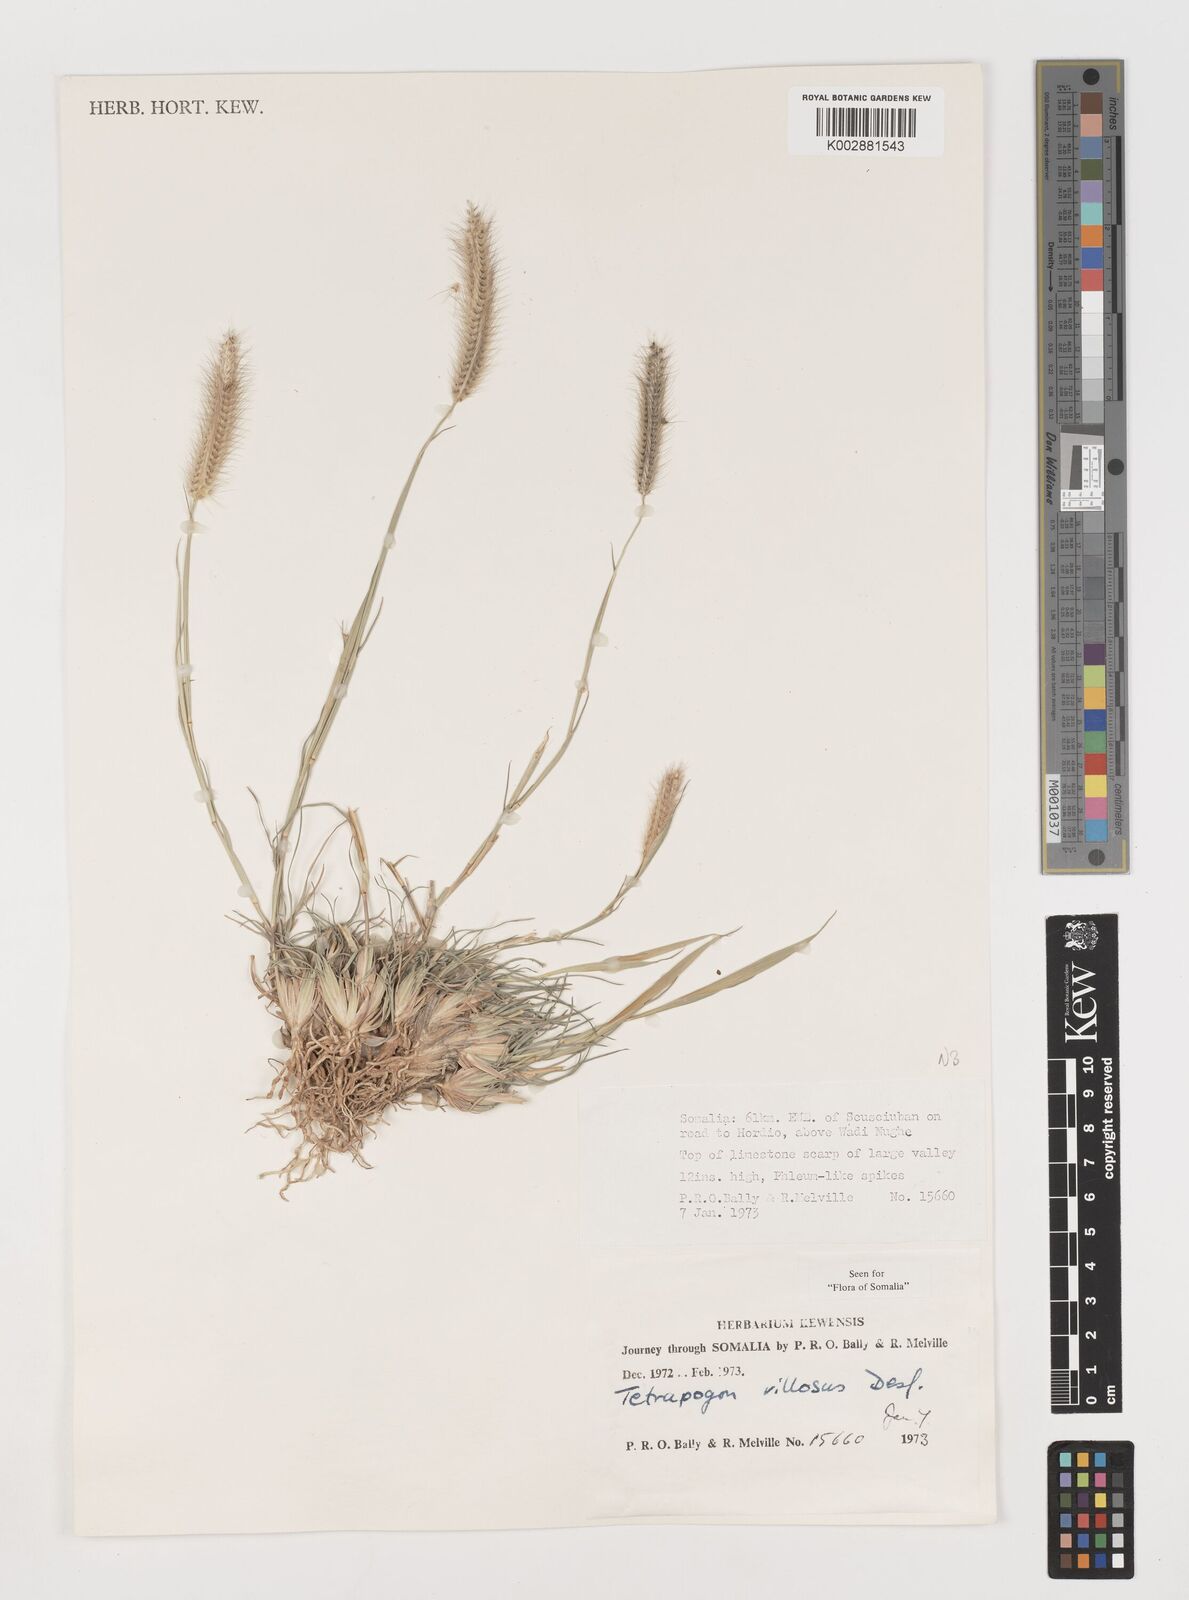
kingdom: Plantae
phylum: Tracheophyta
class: Liliopsida
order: Poales
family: Poaceae
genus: Tetrapogon
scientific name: Tetrapogon villosus
